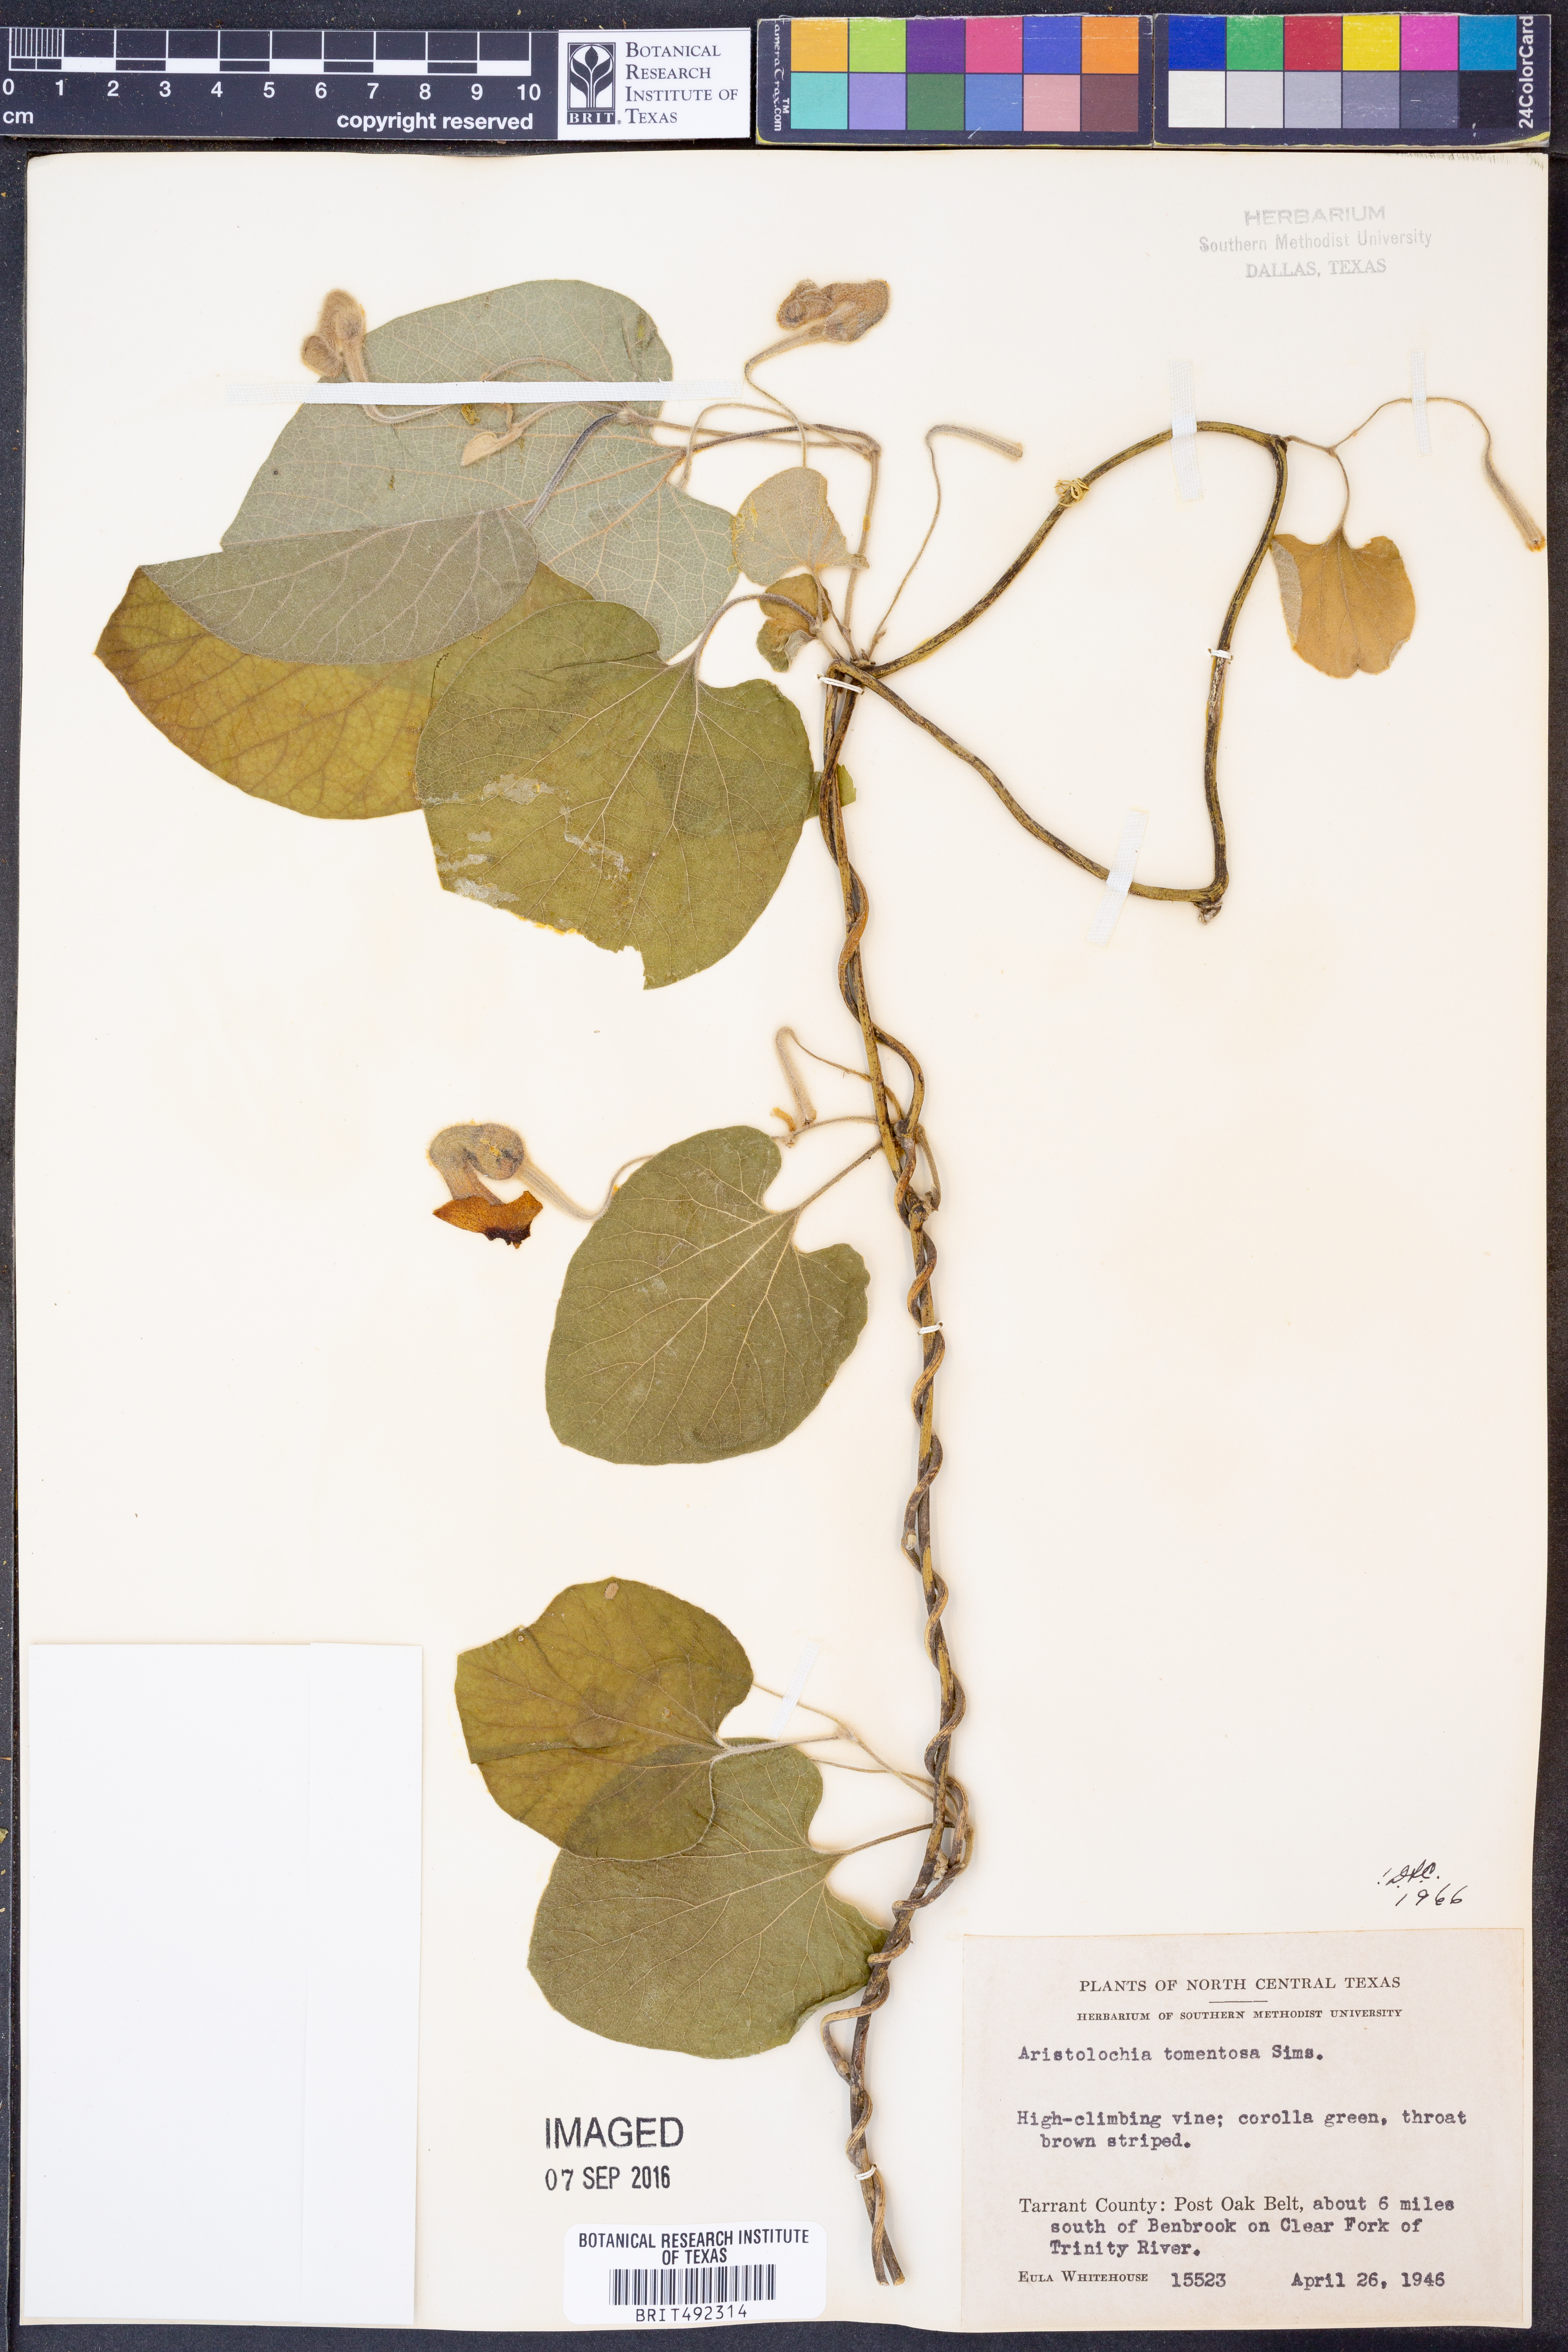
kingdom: Plantae
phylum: Tracheophyta
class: Magnoliopsida
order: Piperales
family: Aristolochiaceae
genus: Isotrema
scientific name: Isotrema tomentosum
